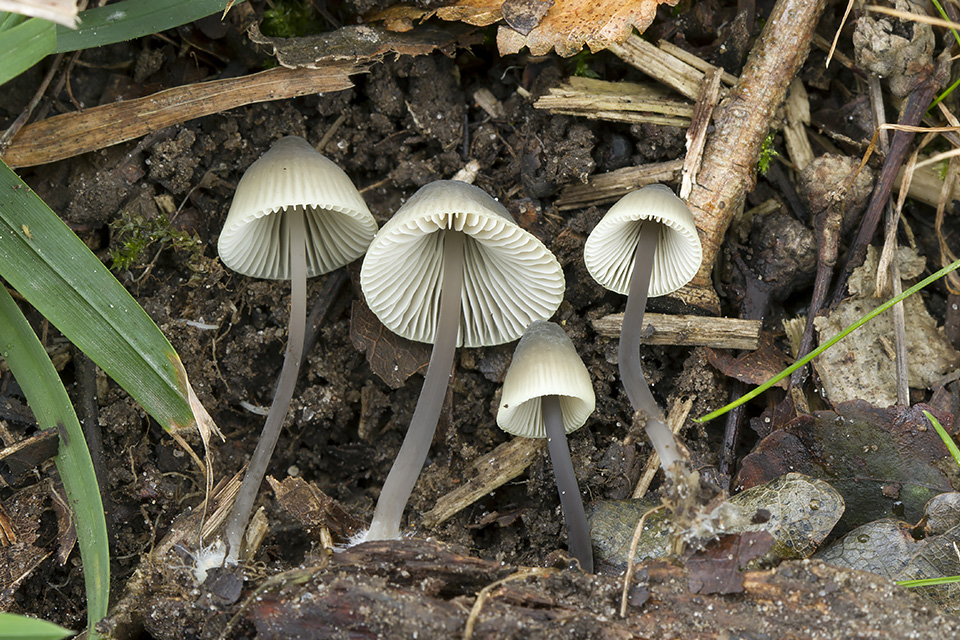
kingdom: Fungi
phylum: Basidiomycota
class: Agaricomycetes
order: Agaricales
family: Mycenaceae
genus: Mycena
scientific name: Mycena arcangeliana
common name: oliven-huesvamp
